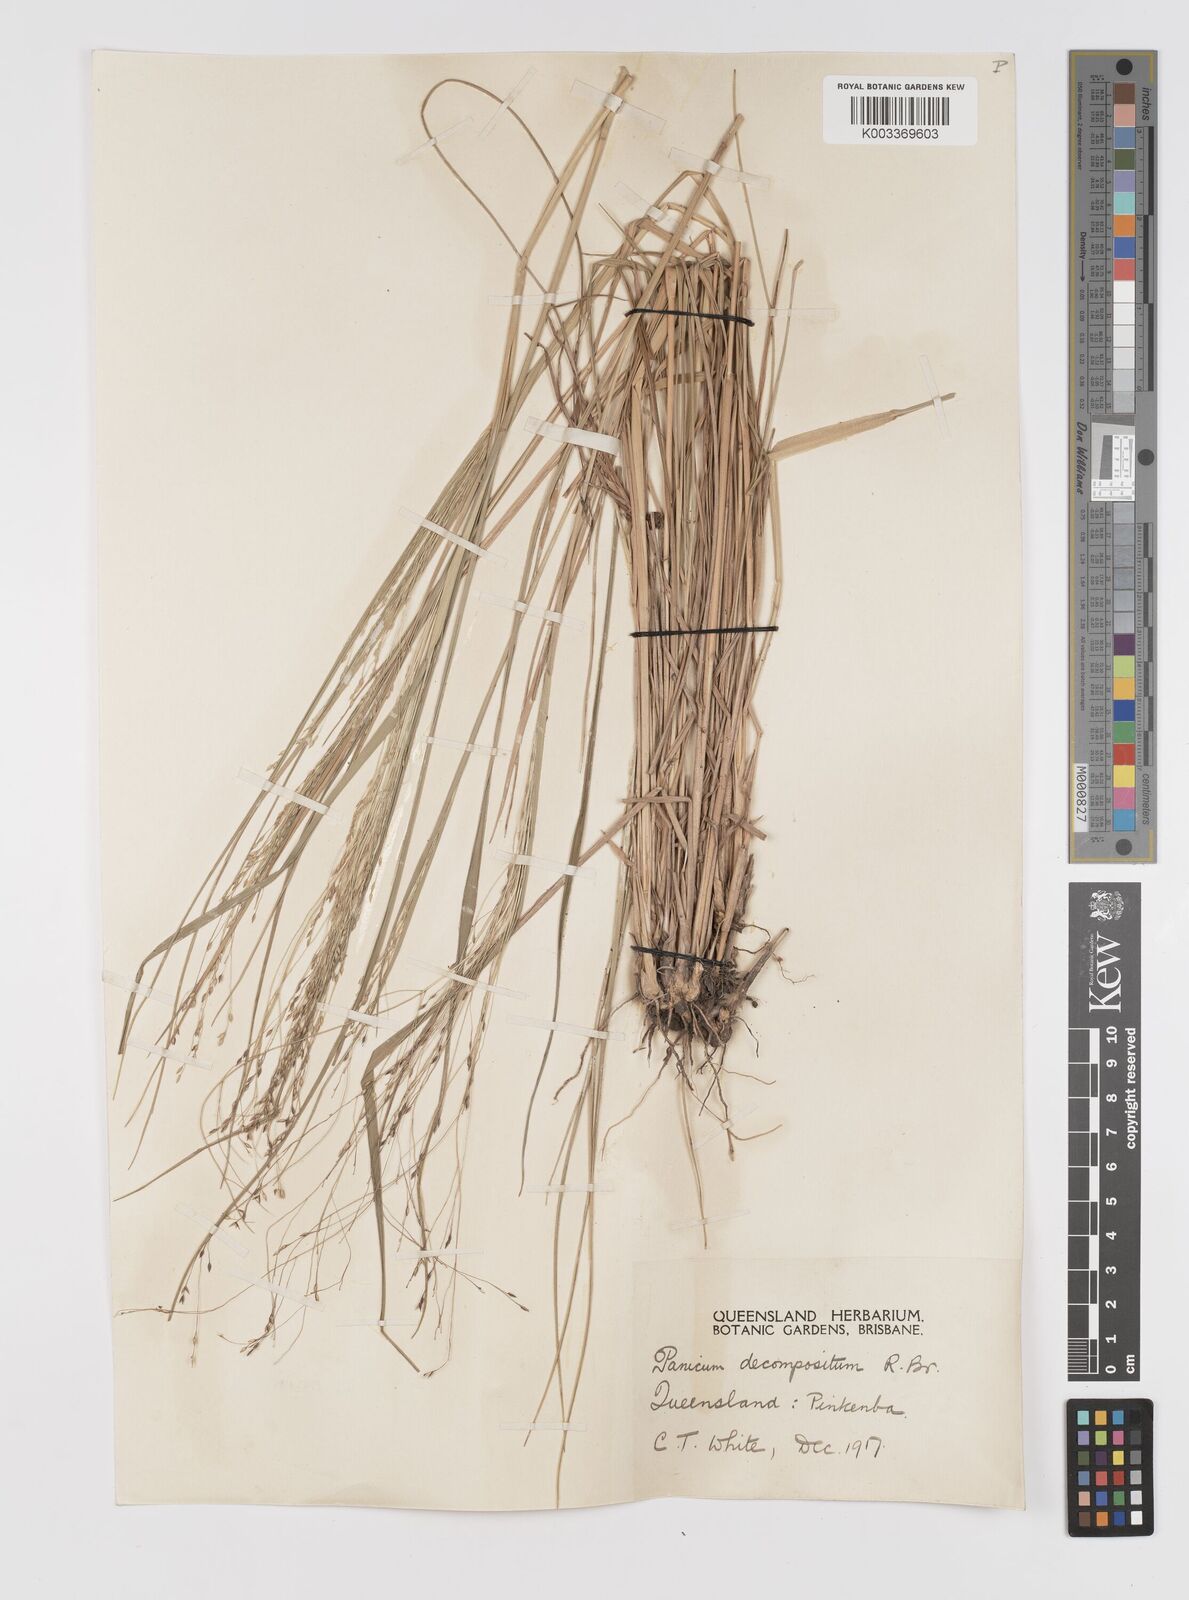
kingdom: Plantae
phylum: Tracheophyta
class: Liliopsida
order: Poales
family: Poaceae
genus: Panicum
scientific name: Panicum decompositum
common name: Australian millet
